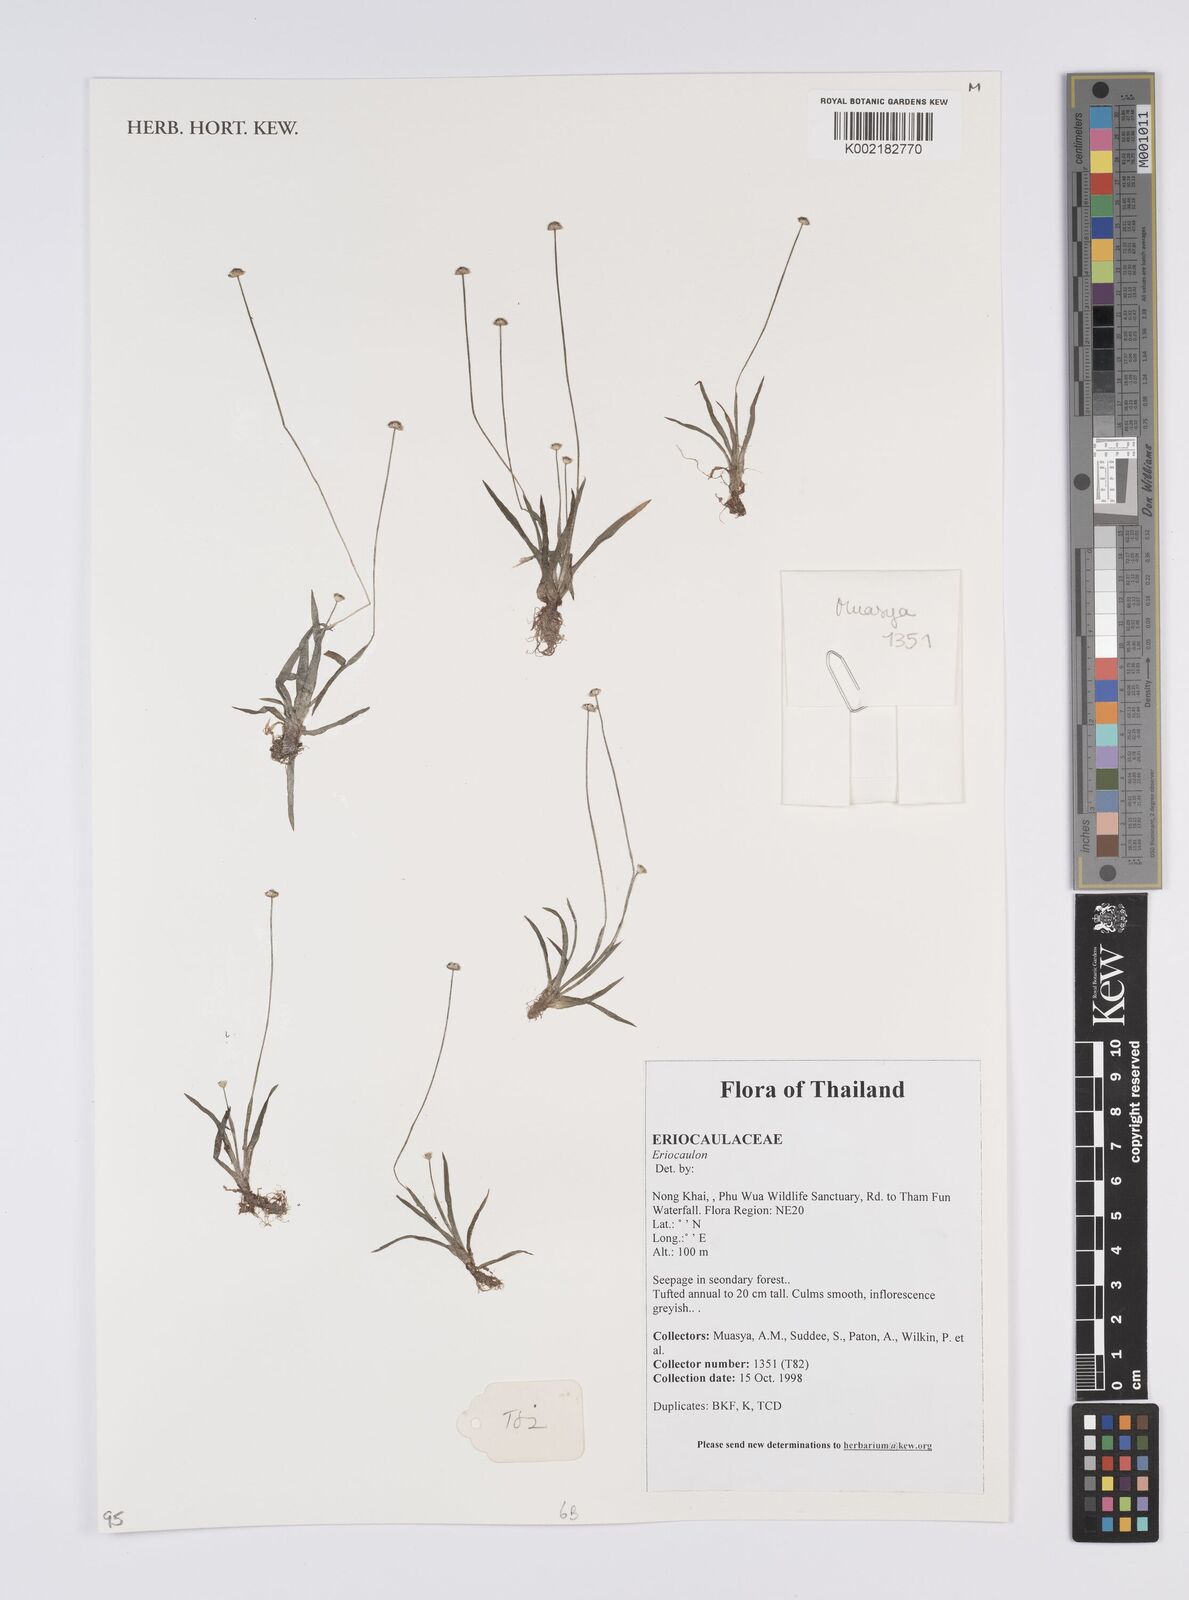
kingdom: Plantae
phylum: Tracheophyta
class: Liliopsida
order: Poales
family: Eriocaulaceae
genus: Eriocaulon
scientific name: Eriocaulon
